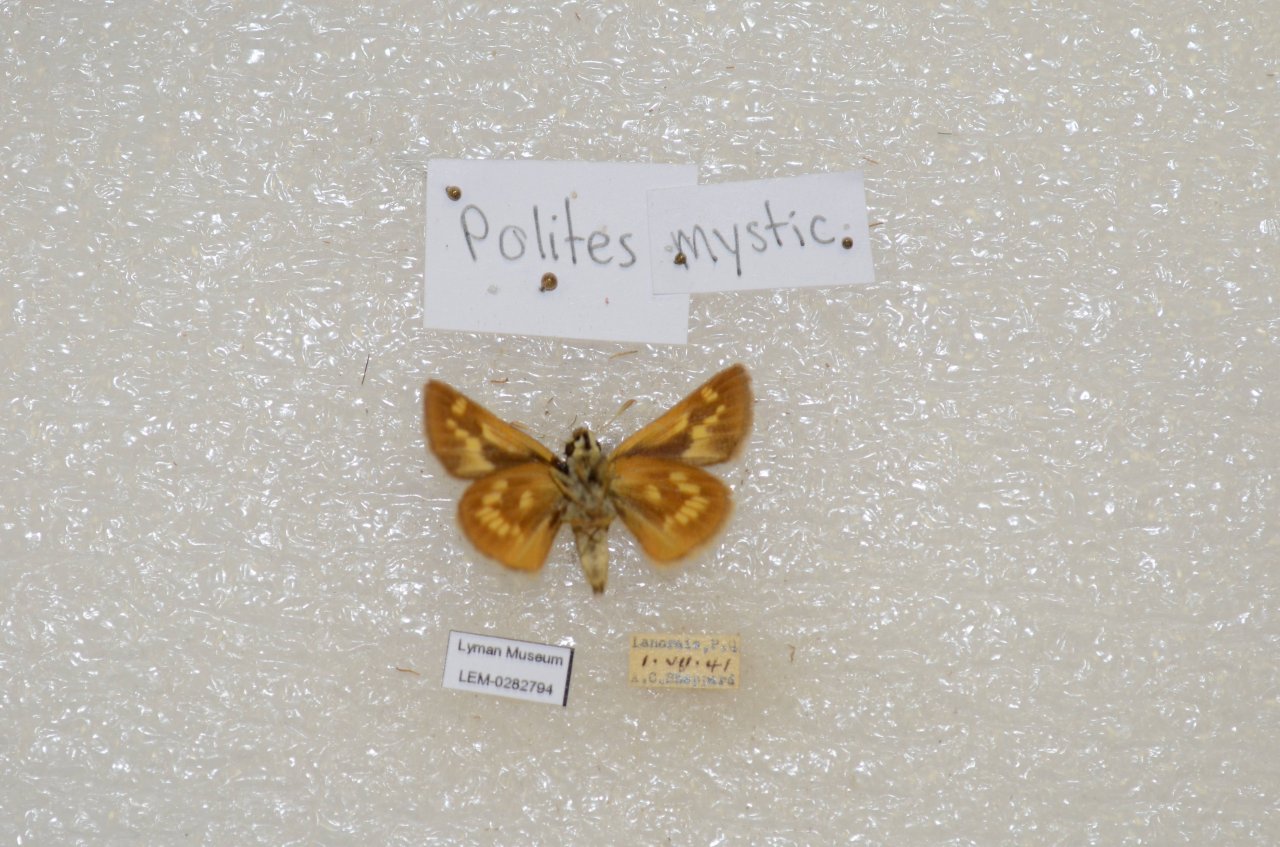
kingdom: Animalia
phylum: Arthropoda
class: Insecta
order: Lepidoptera
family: Hesperiidae
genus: Polites
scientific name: Polites
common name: Long Dash Skipper
